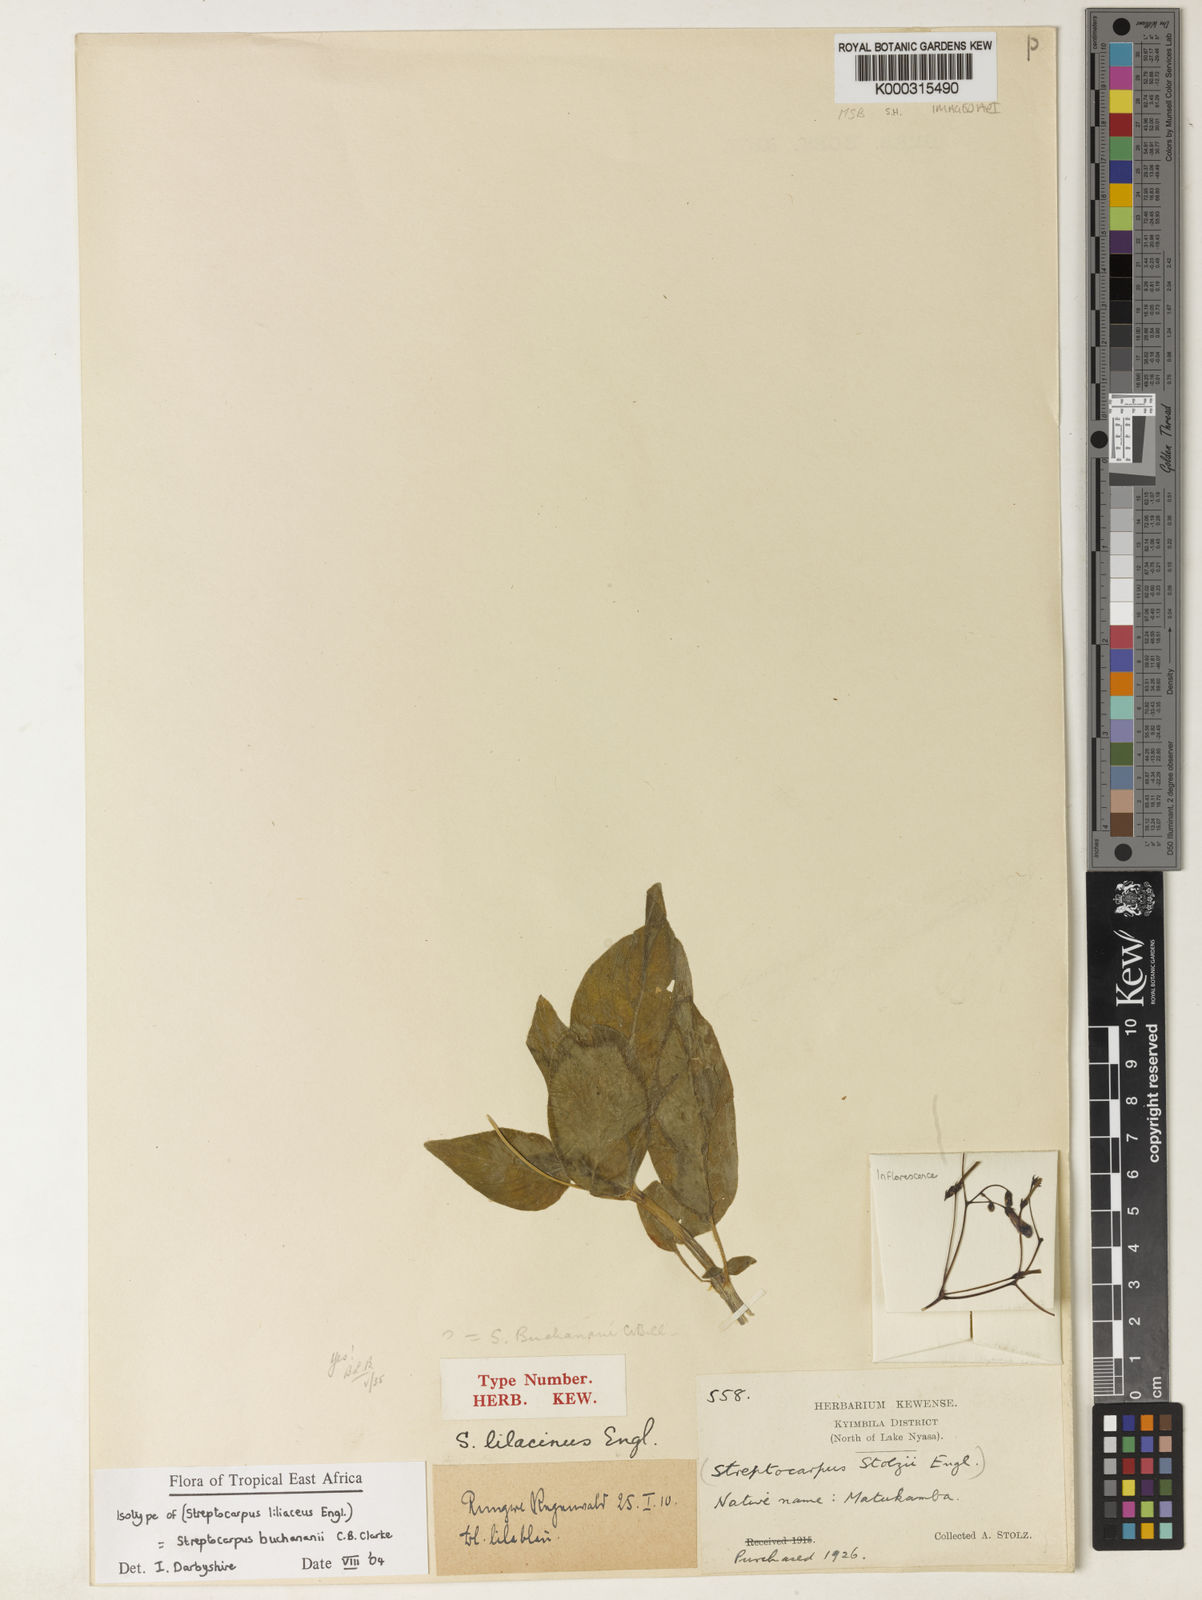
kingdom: Plantae
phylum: Tracheophyta
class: Magnoliopsida
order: Lamiales
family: Gesneriaceae
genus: Streptocarpus
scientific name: Streptocarpus buchananii
